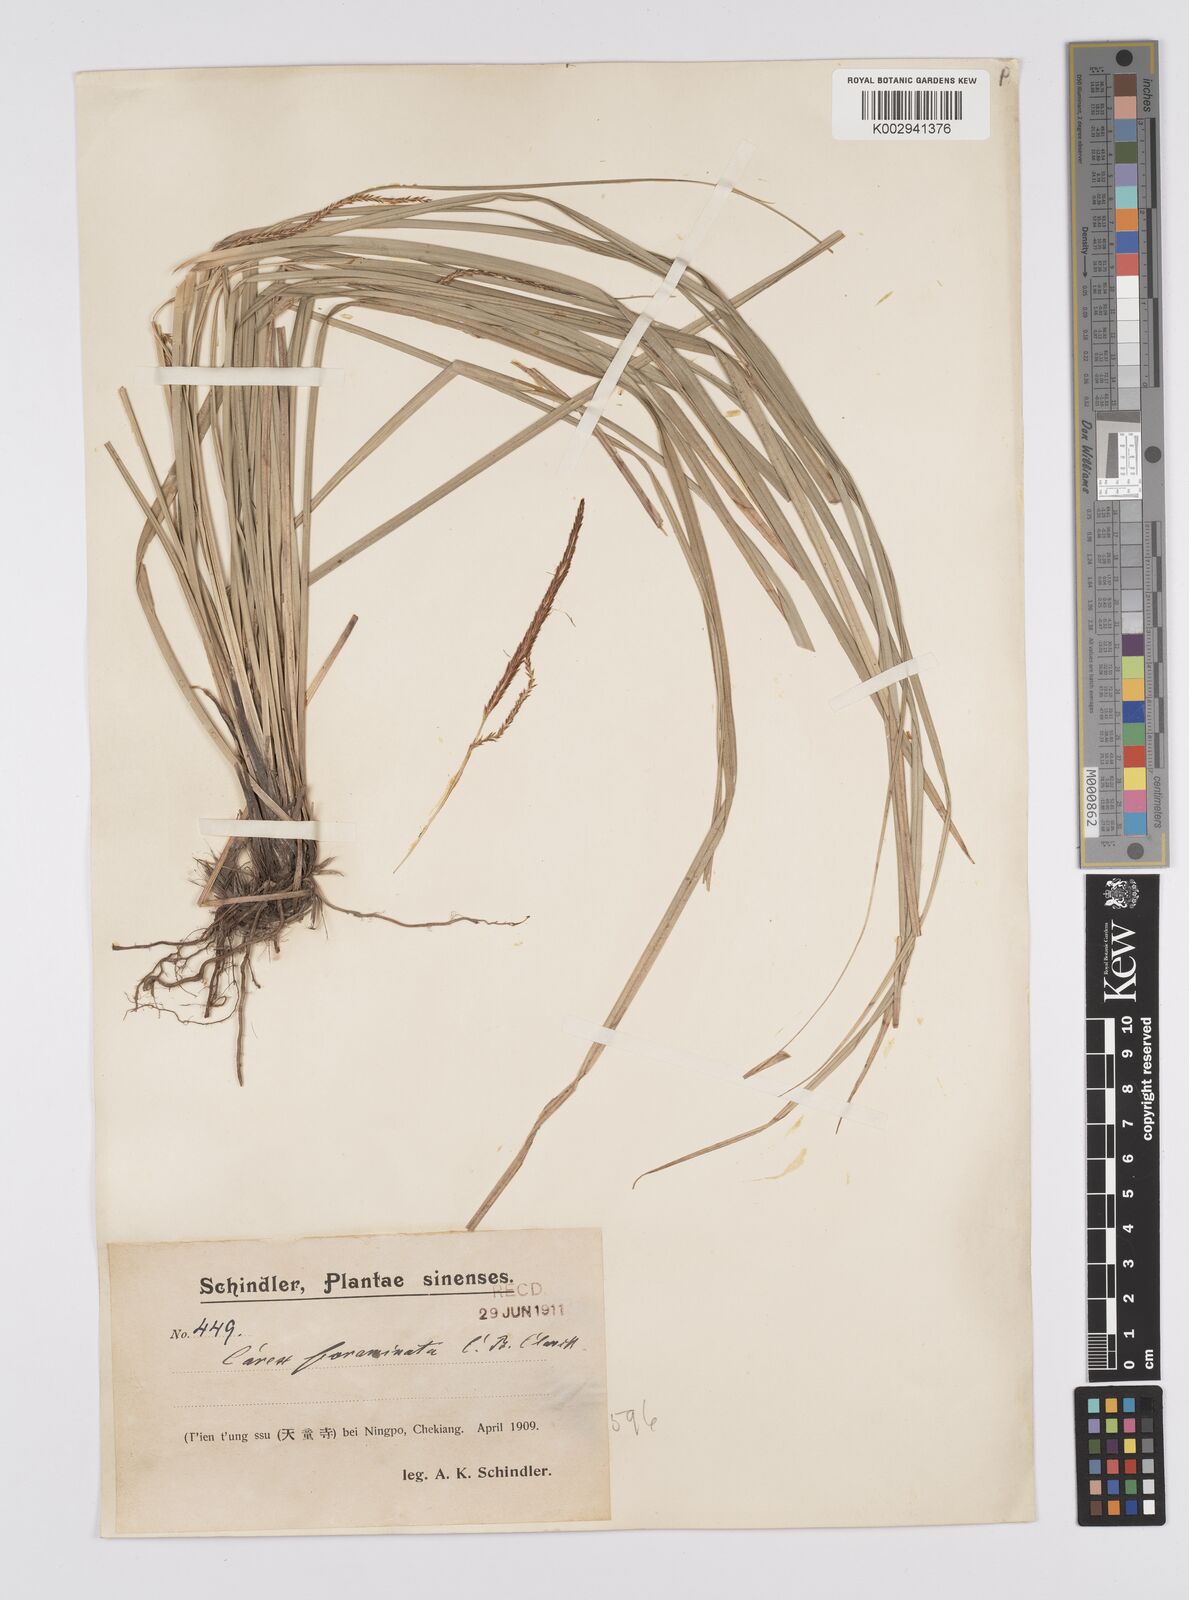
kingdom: Plantae
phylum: Tracheophyta
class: Liliopsida
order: Poales
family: Cyperaceae
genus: Carex
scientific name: Carex foraminata
